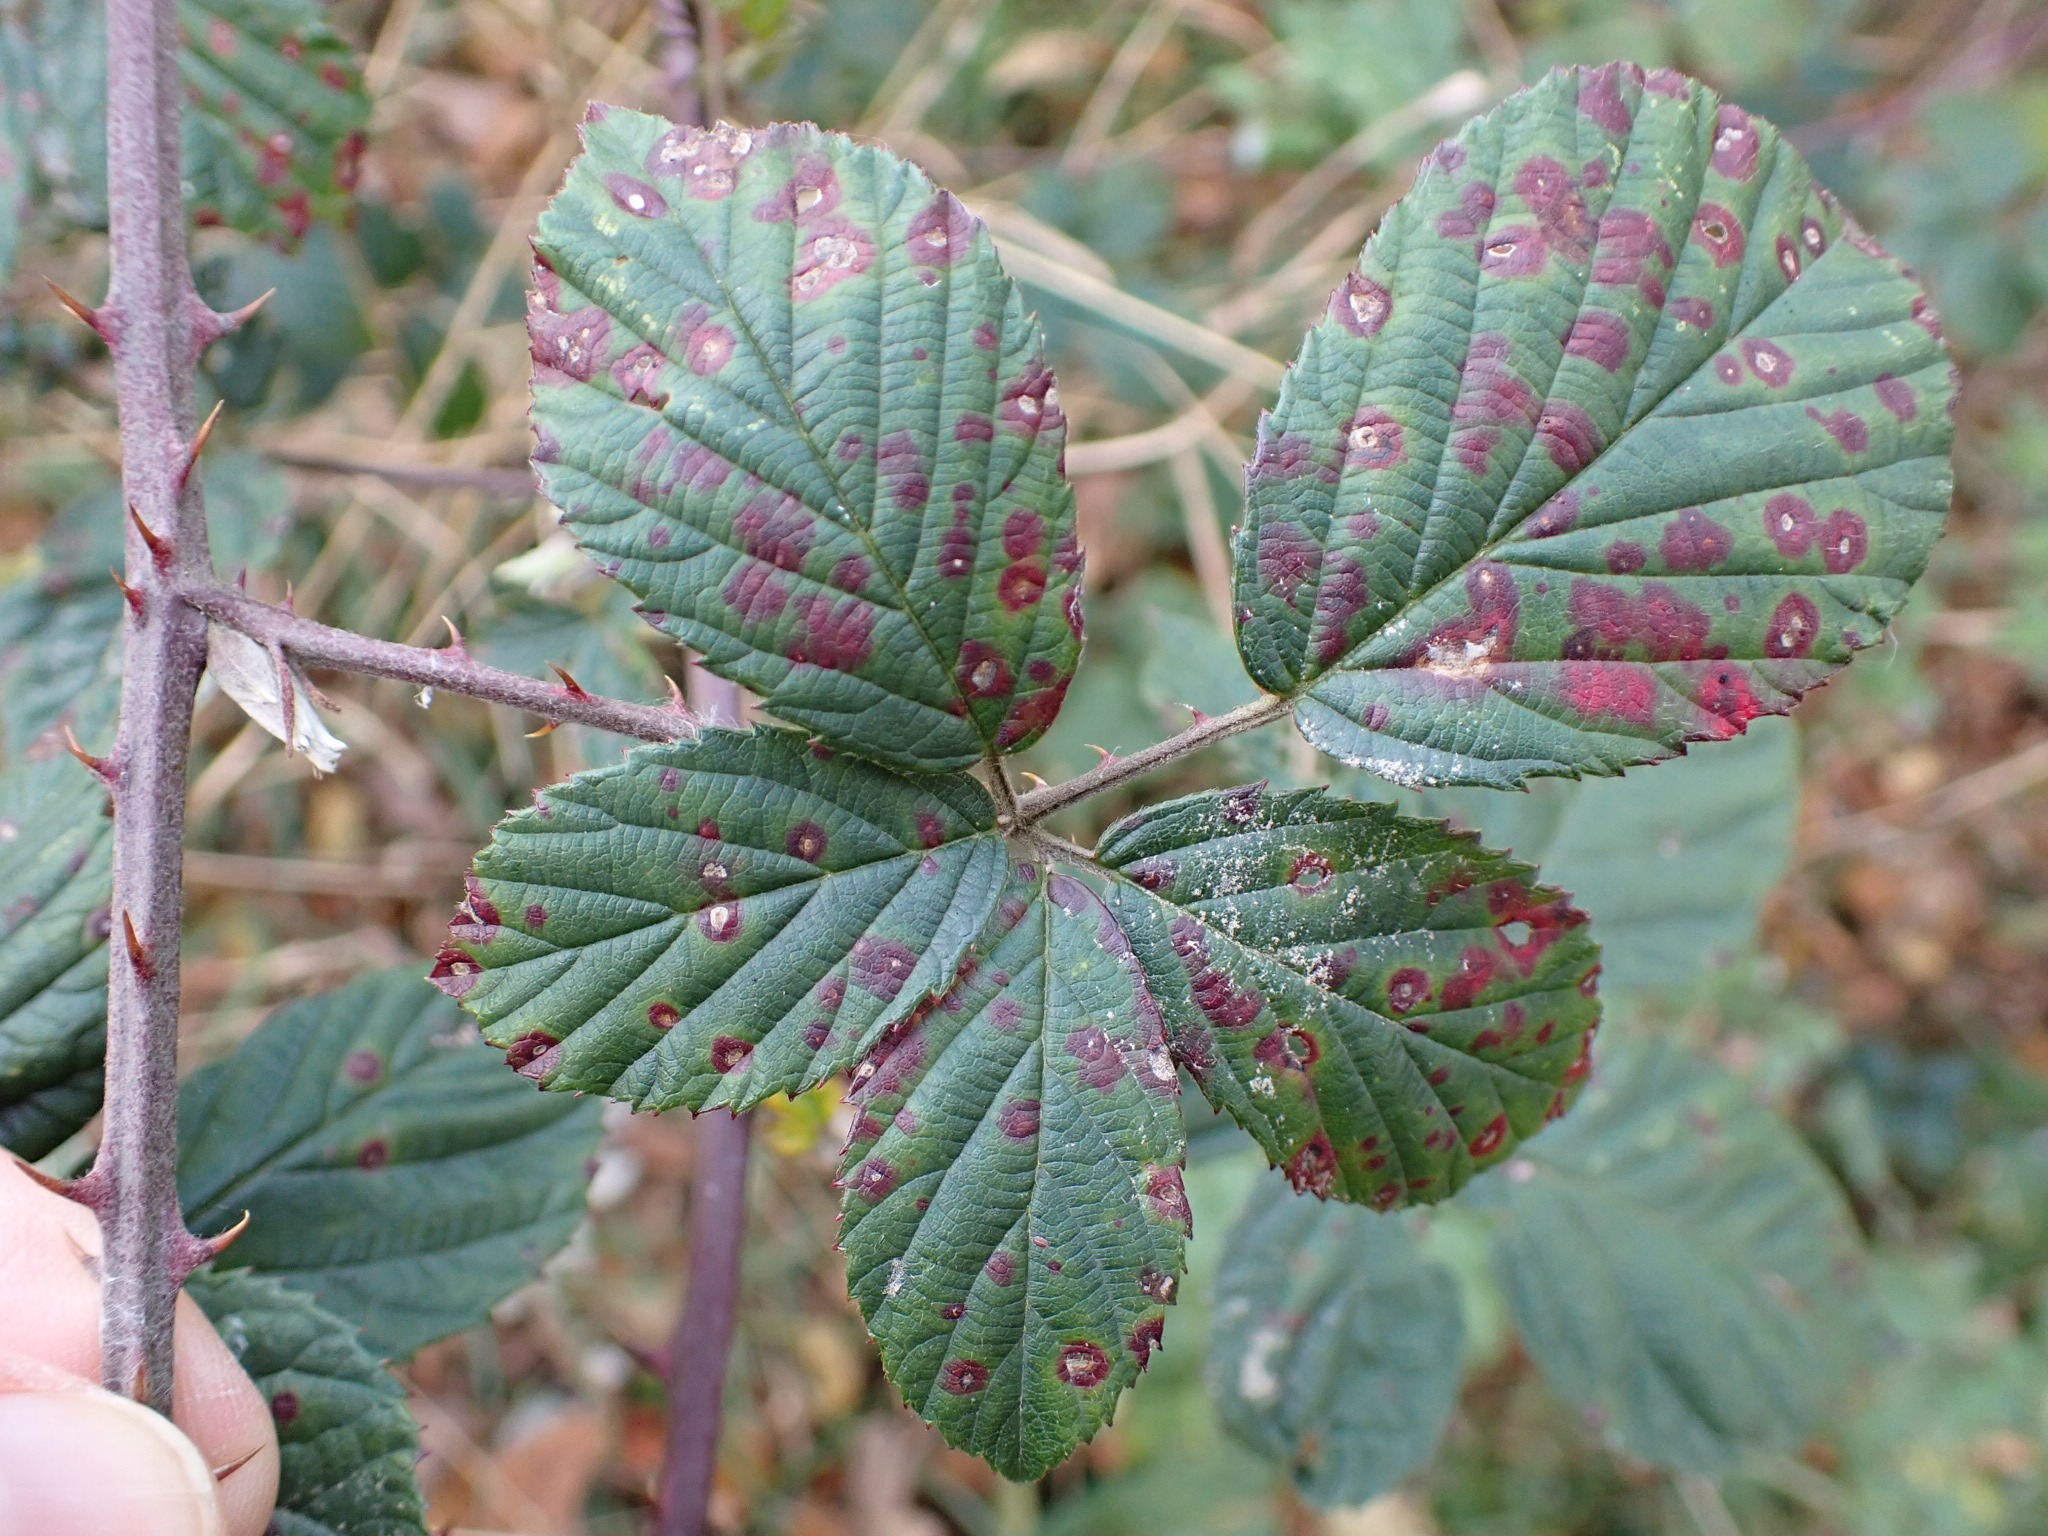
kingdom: Plantae
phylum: Tracheophyta
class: Magnoliopsida
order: Rosales
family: Rosaceae
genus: Rubus
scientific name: Rubus lindebergii
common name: Lindebergs brombær
